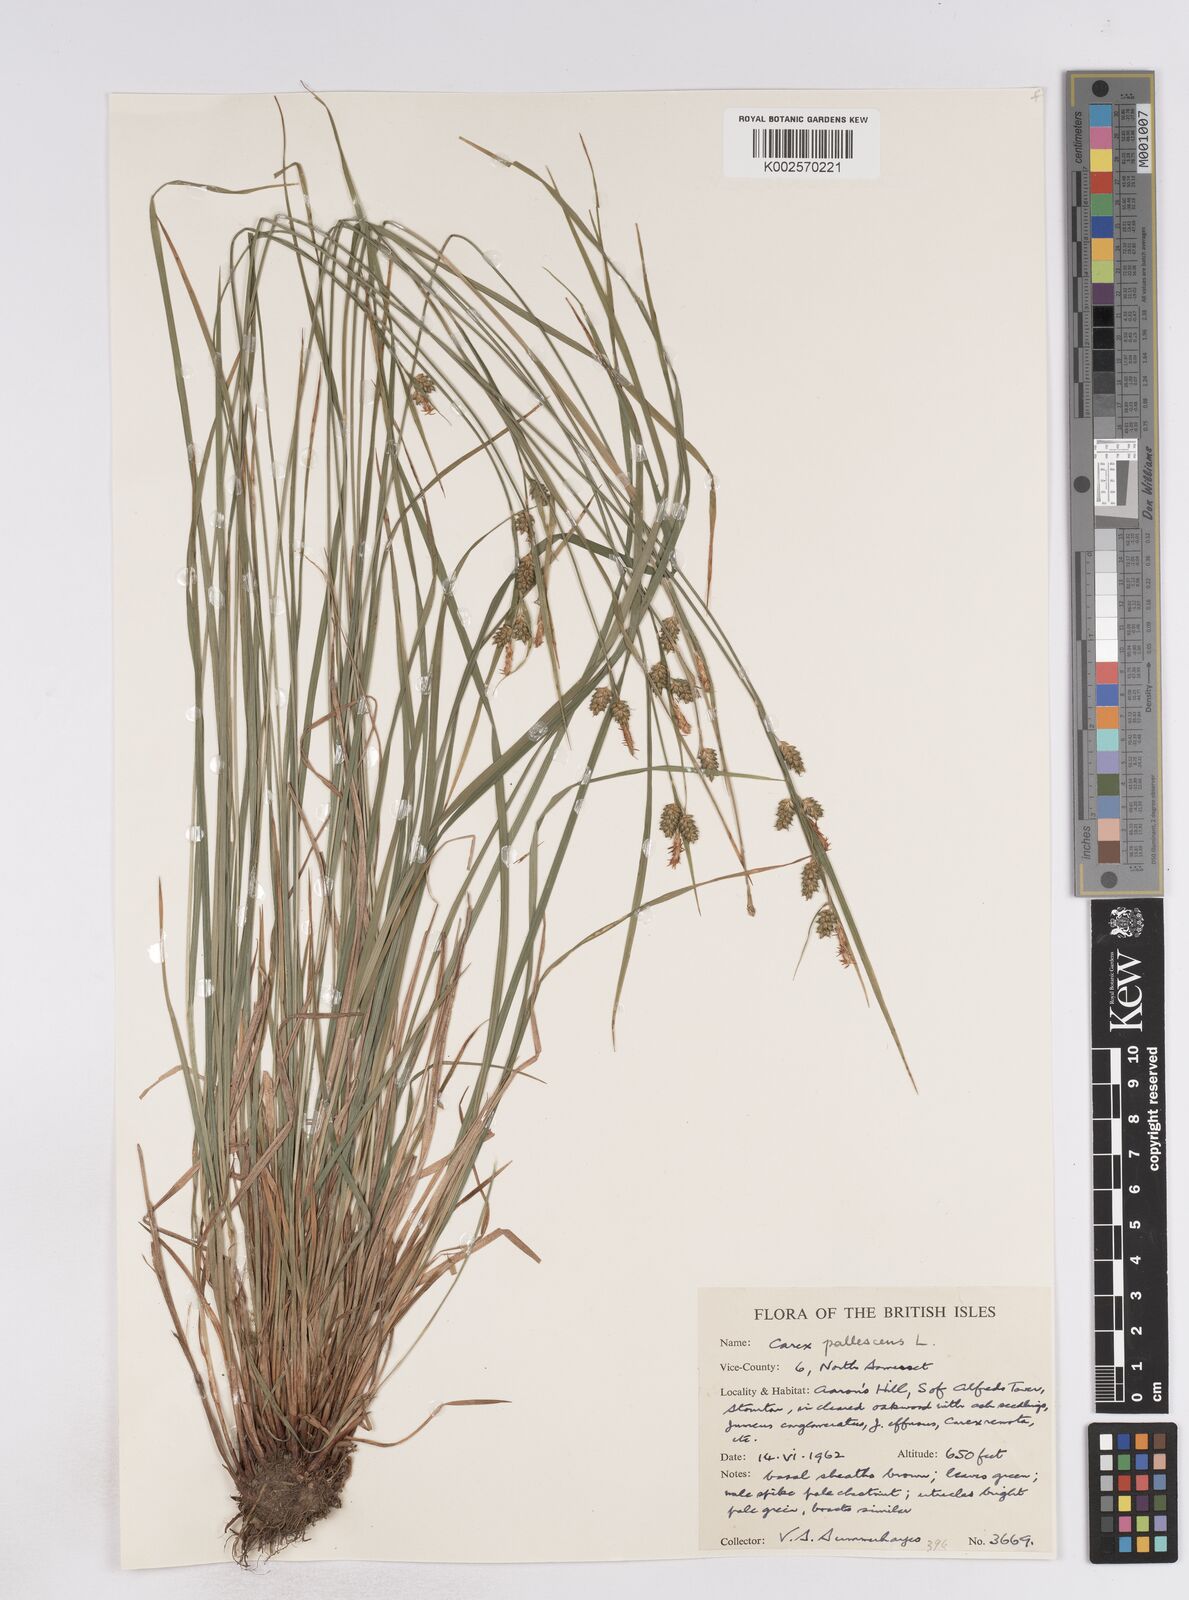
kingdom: Plantae
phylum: Tracheophyta
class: Liliopsida
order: Poales
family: Cyperaceae
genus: Carex
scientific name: Carex pallescens
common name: Pale sedge
